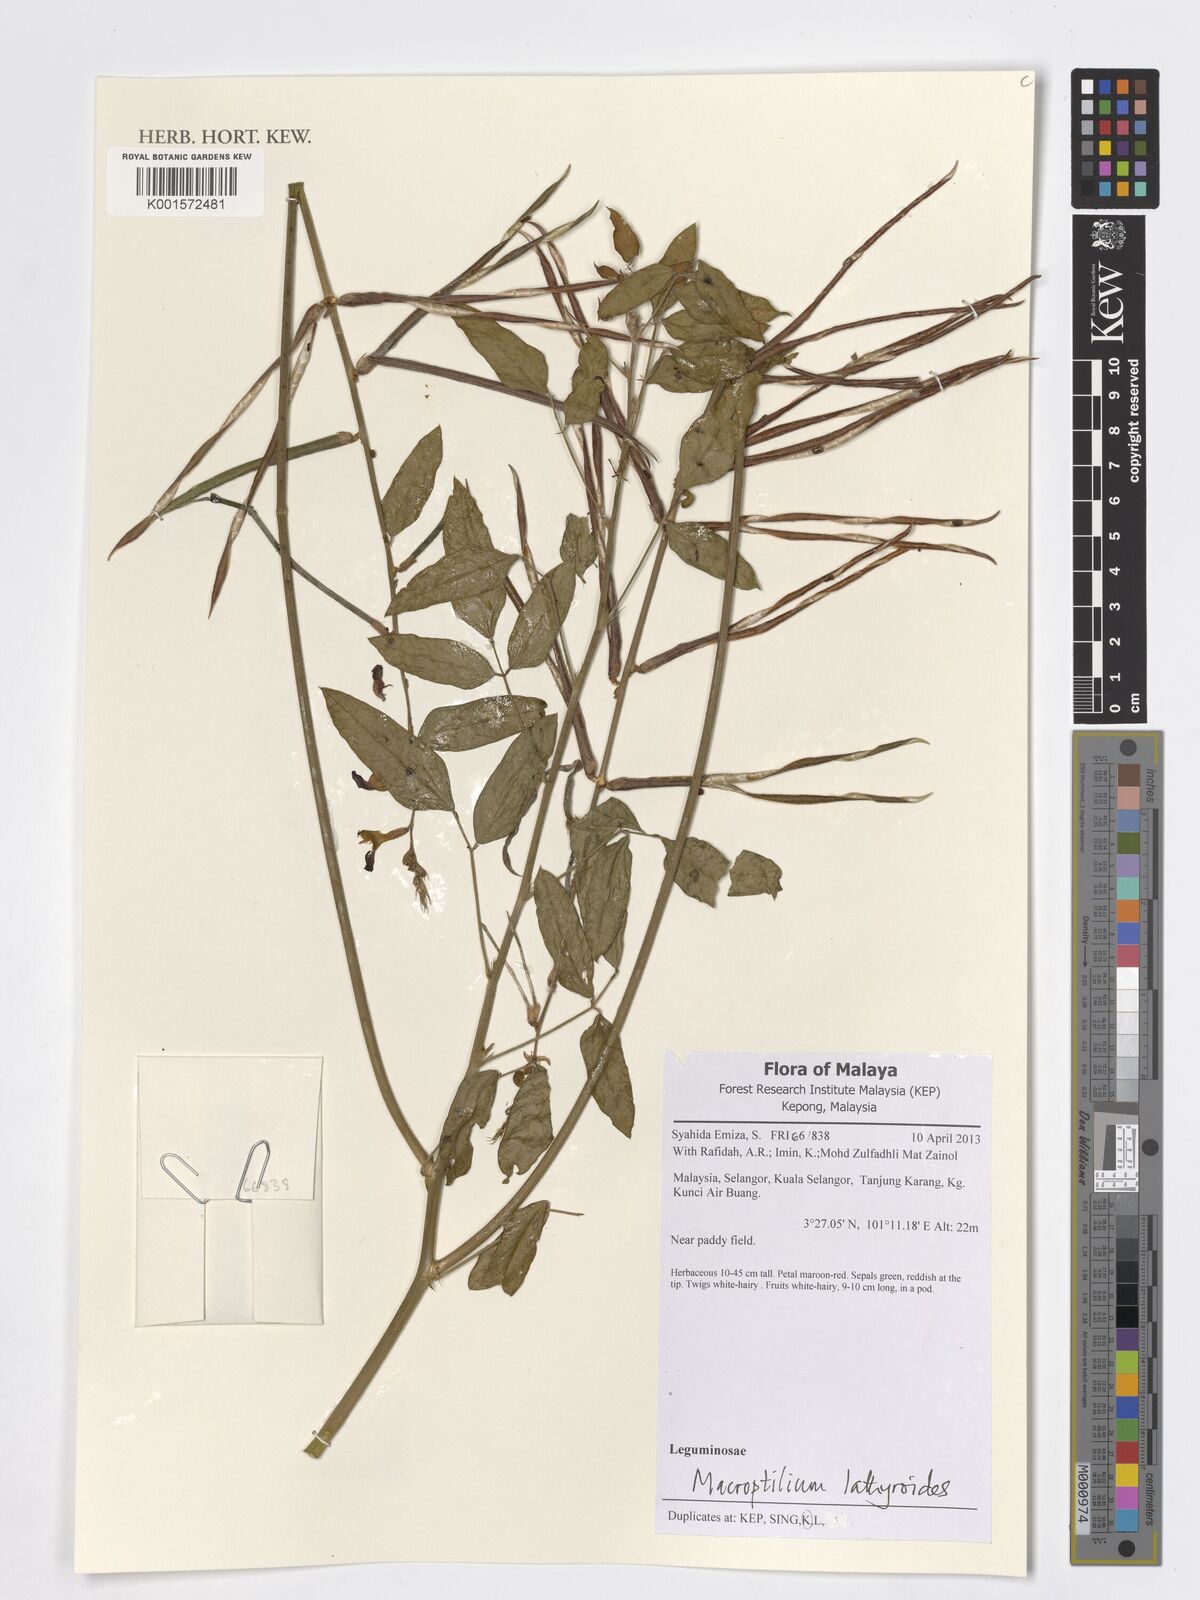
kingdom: Plantae
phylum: Tracheophyta
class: Magnoliopsida
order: Fabales
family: Fabaceae
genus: Macroptilium
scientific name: Macroptilium lathyroides
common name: Wild bushbean
